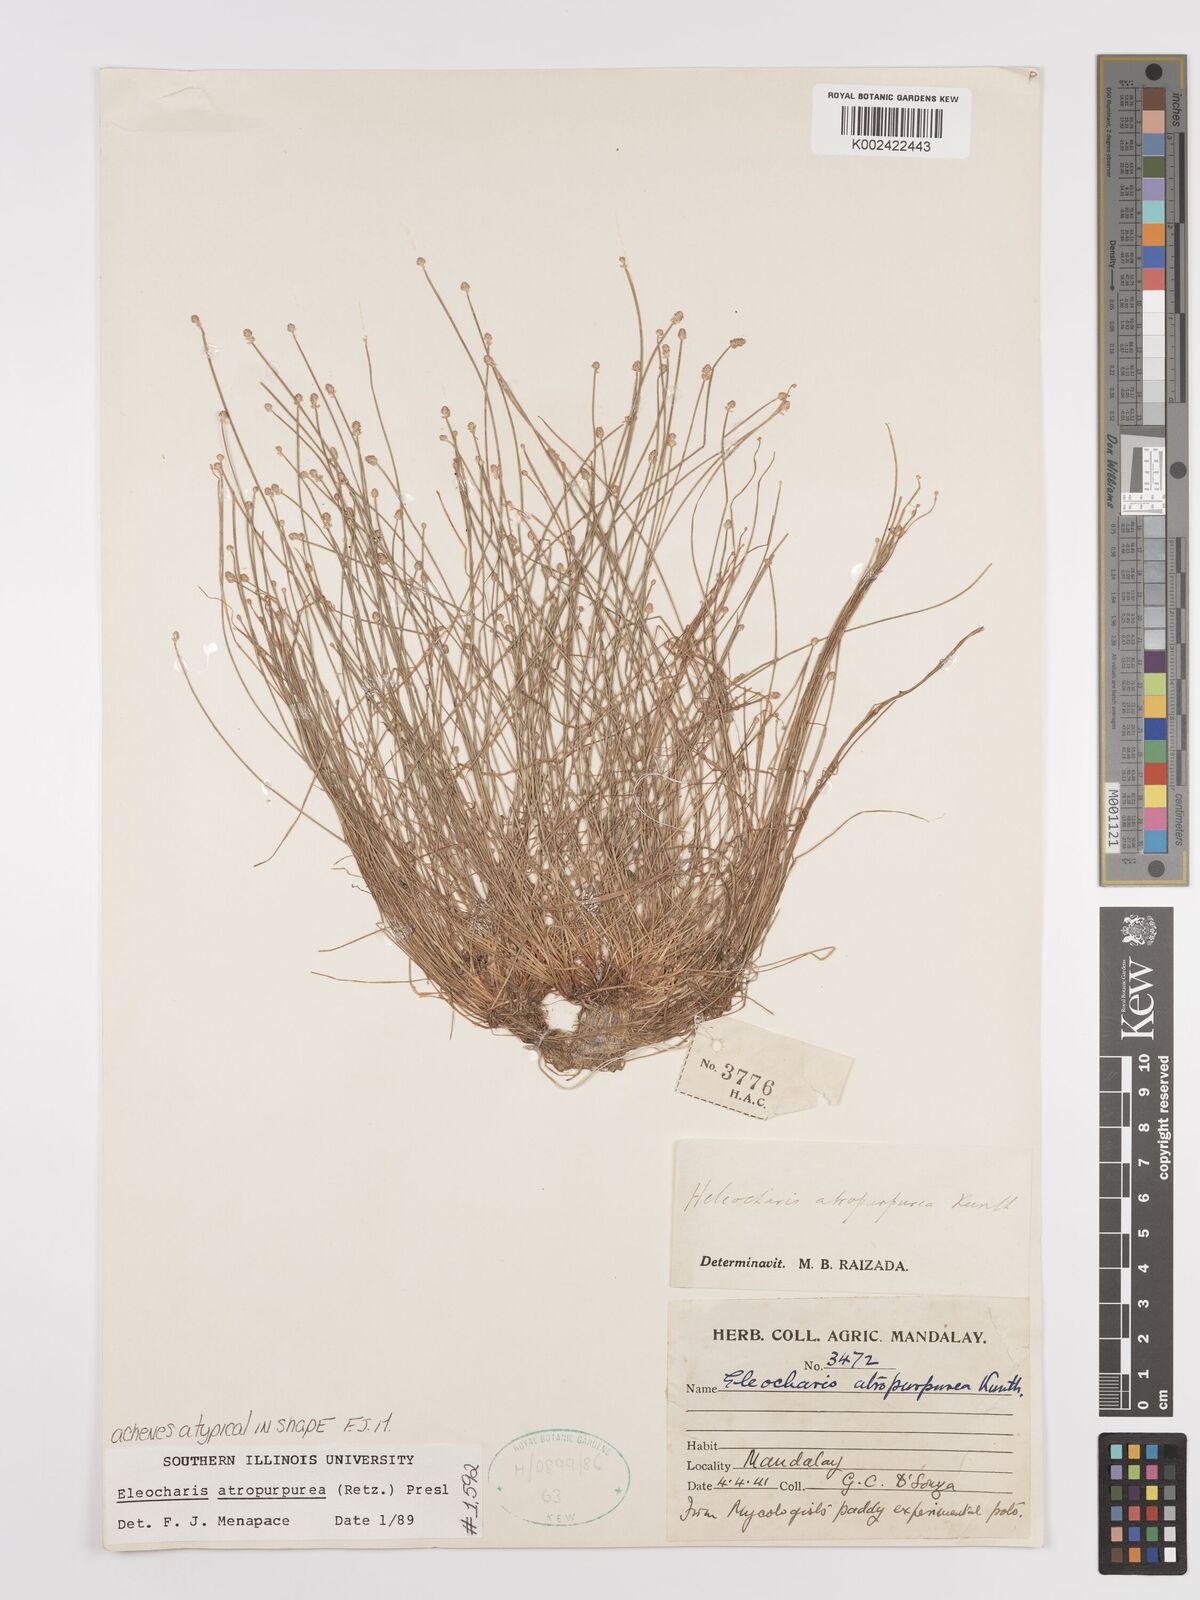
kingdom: Plantae
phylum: Tracheophyta
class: Liliopsida
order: Poales
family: Cyperaceae
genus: Eleocharis
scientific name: Eleocharis atropurpurea
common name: Purple spikerush
